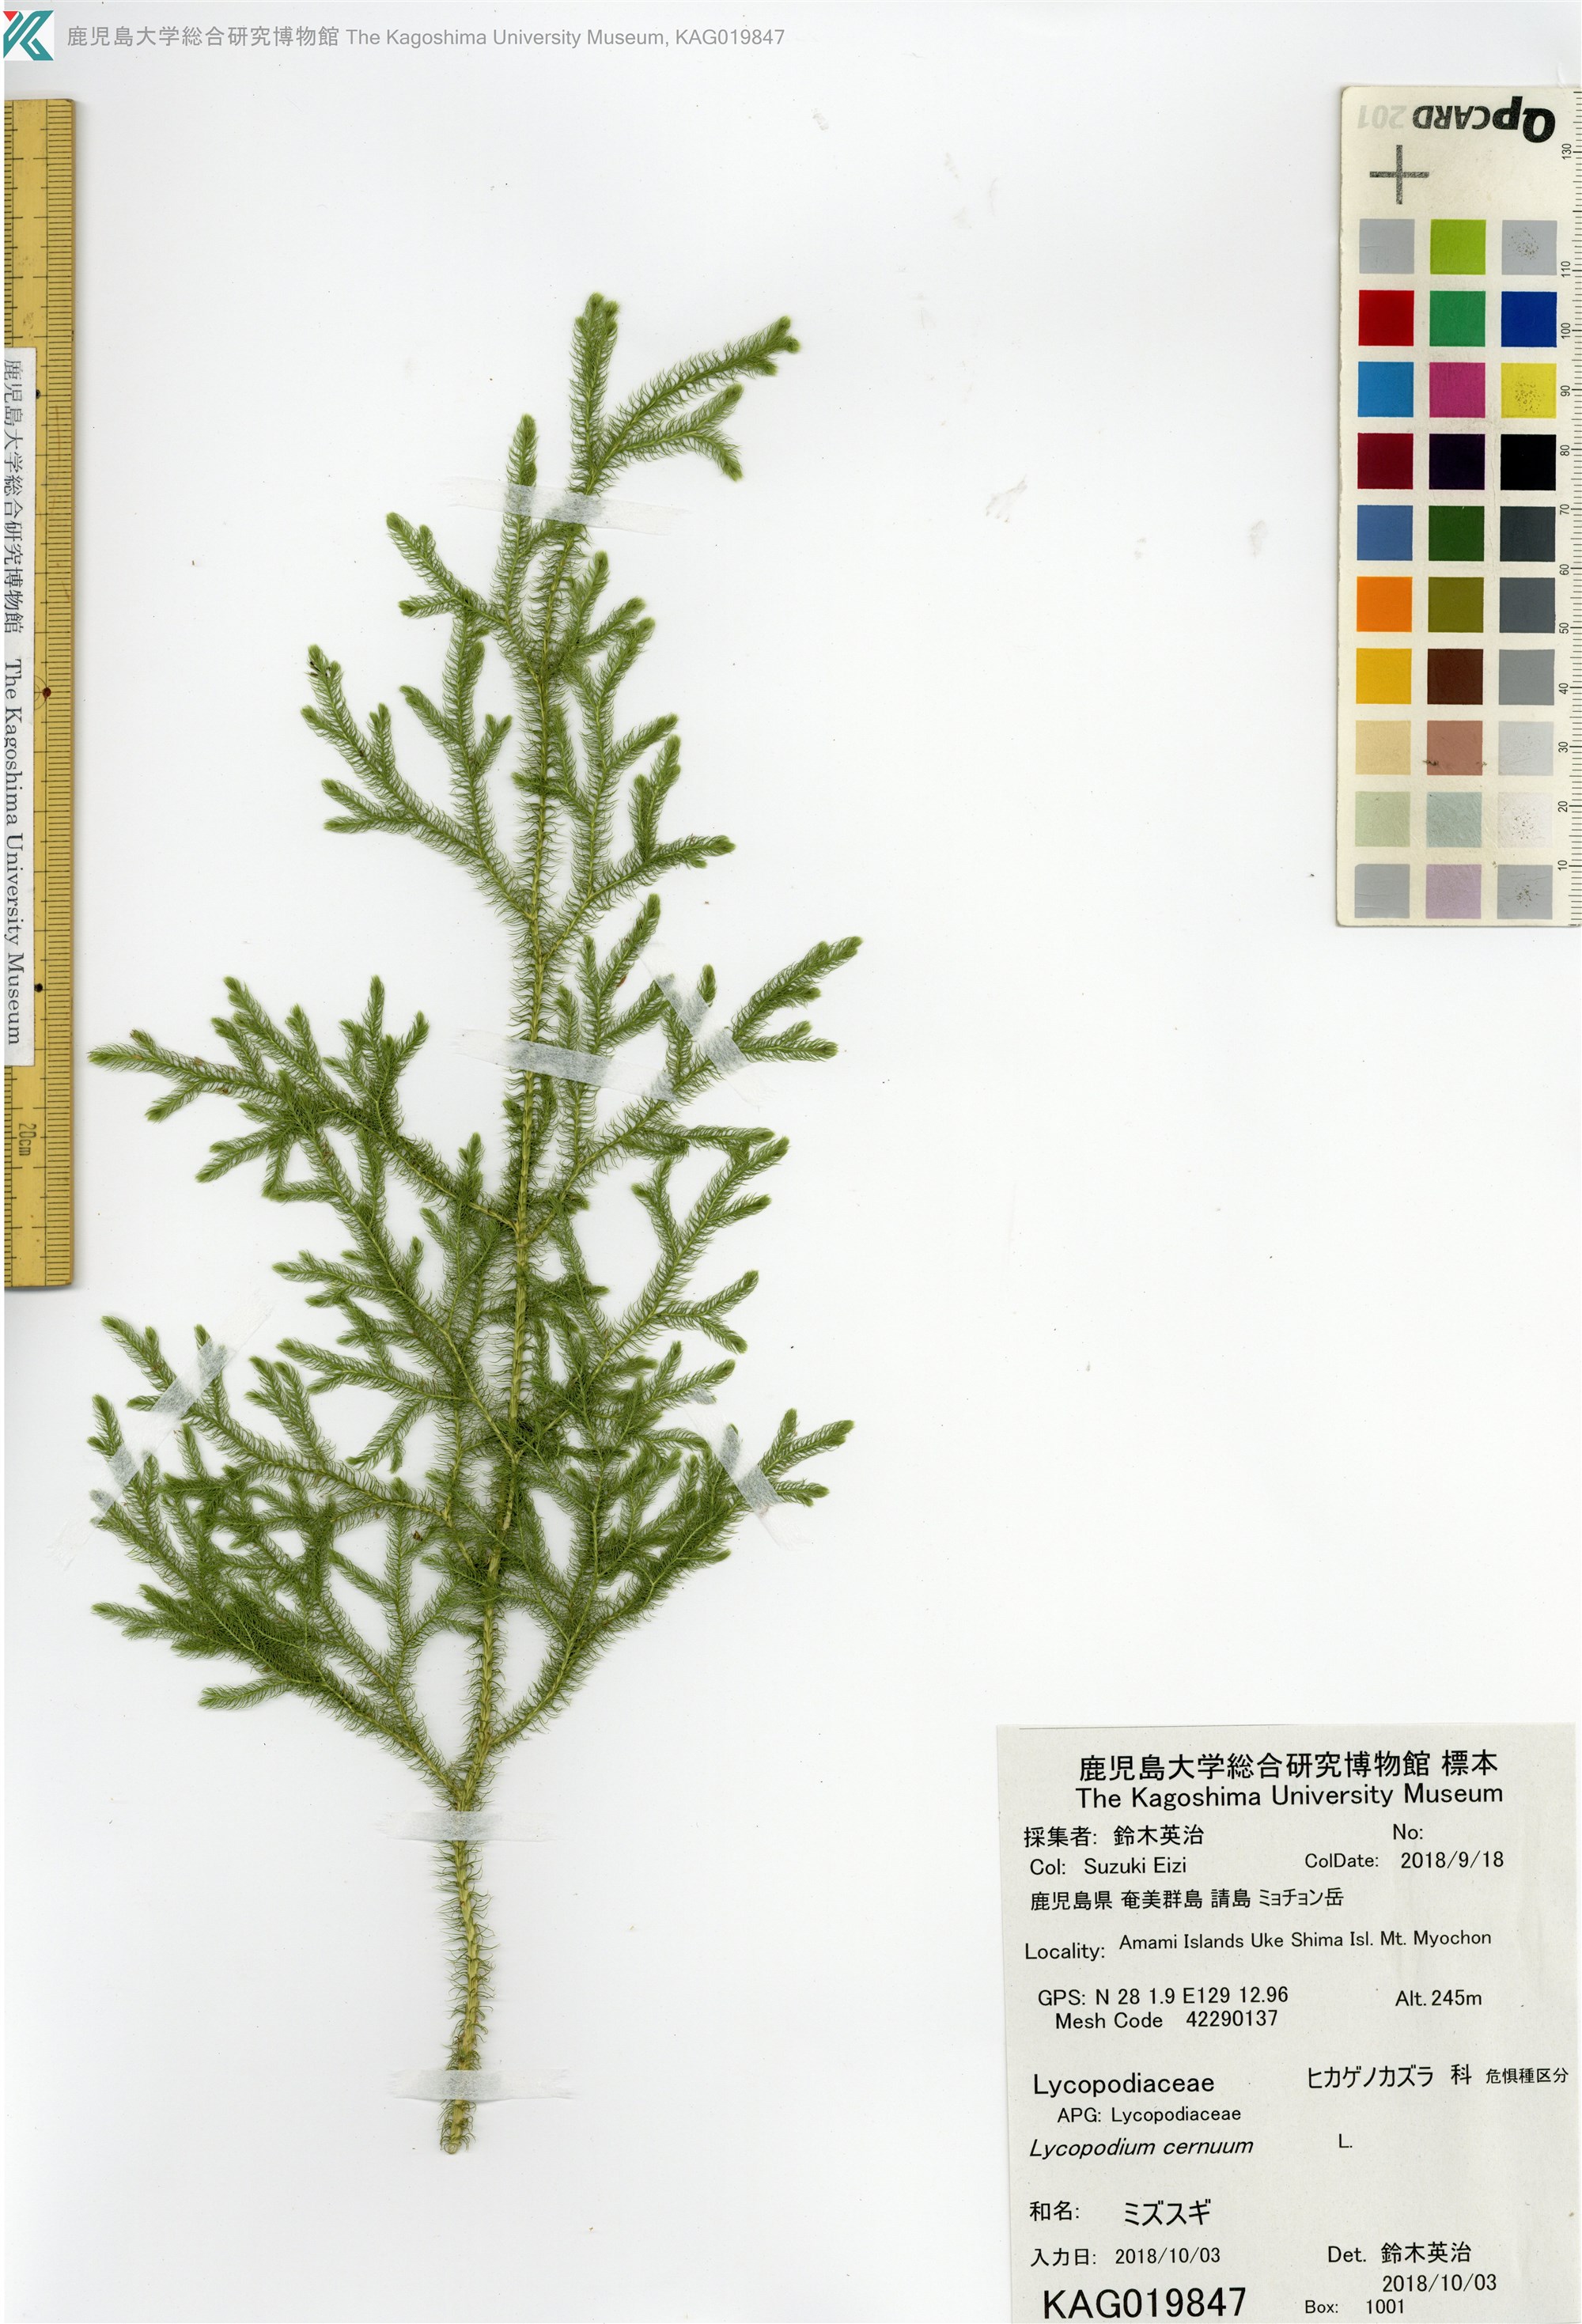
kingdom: Plantae
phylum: Tracheophyta
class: Lycopodiopsida
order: Lycopodiales
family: Lycopodiaceae
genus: Palhinhaea
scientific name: Palhinhaea cernua
